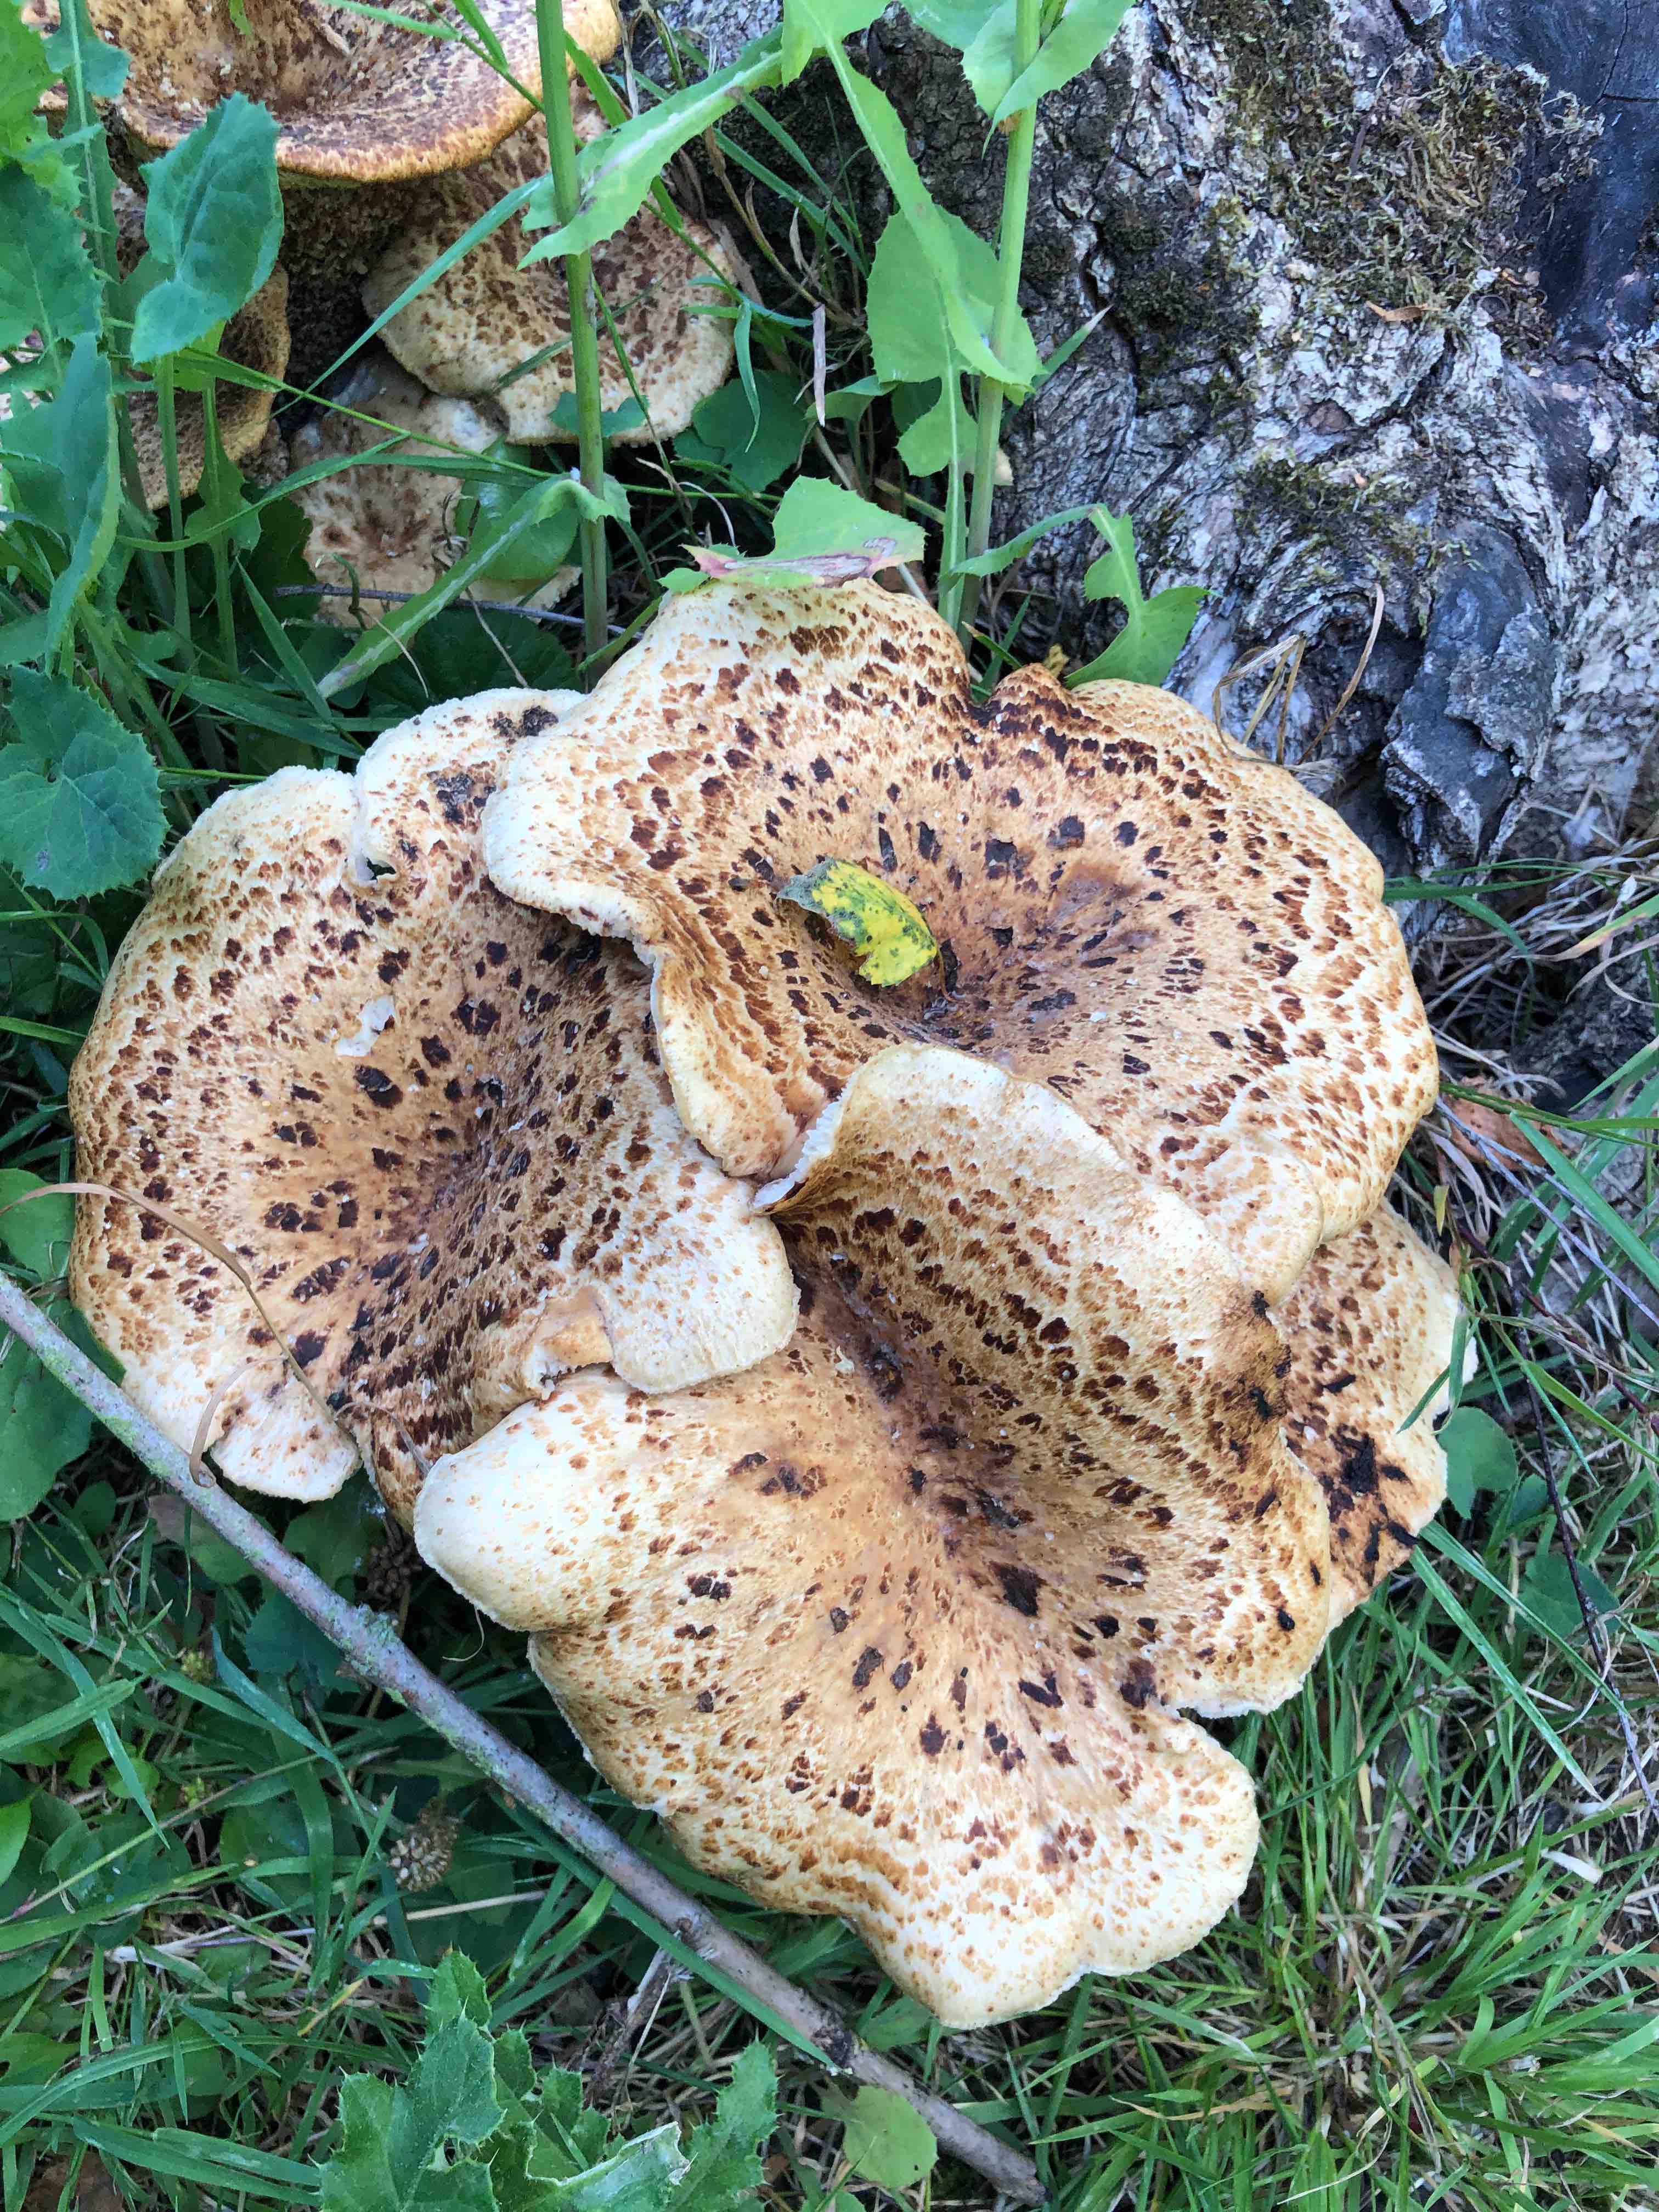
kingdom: Fungi
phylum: Basidiomycota
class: Agaricomycetes
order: Polyporales
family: Polyporaceae
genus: Cerioporus
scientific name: Cerioporus squamosus
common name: skællet stilkporesvamp
